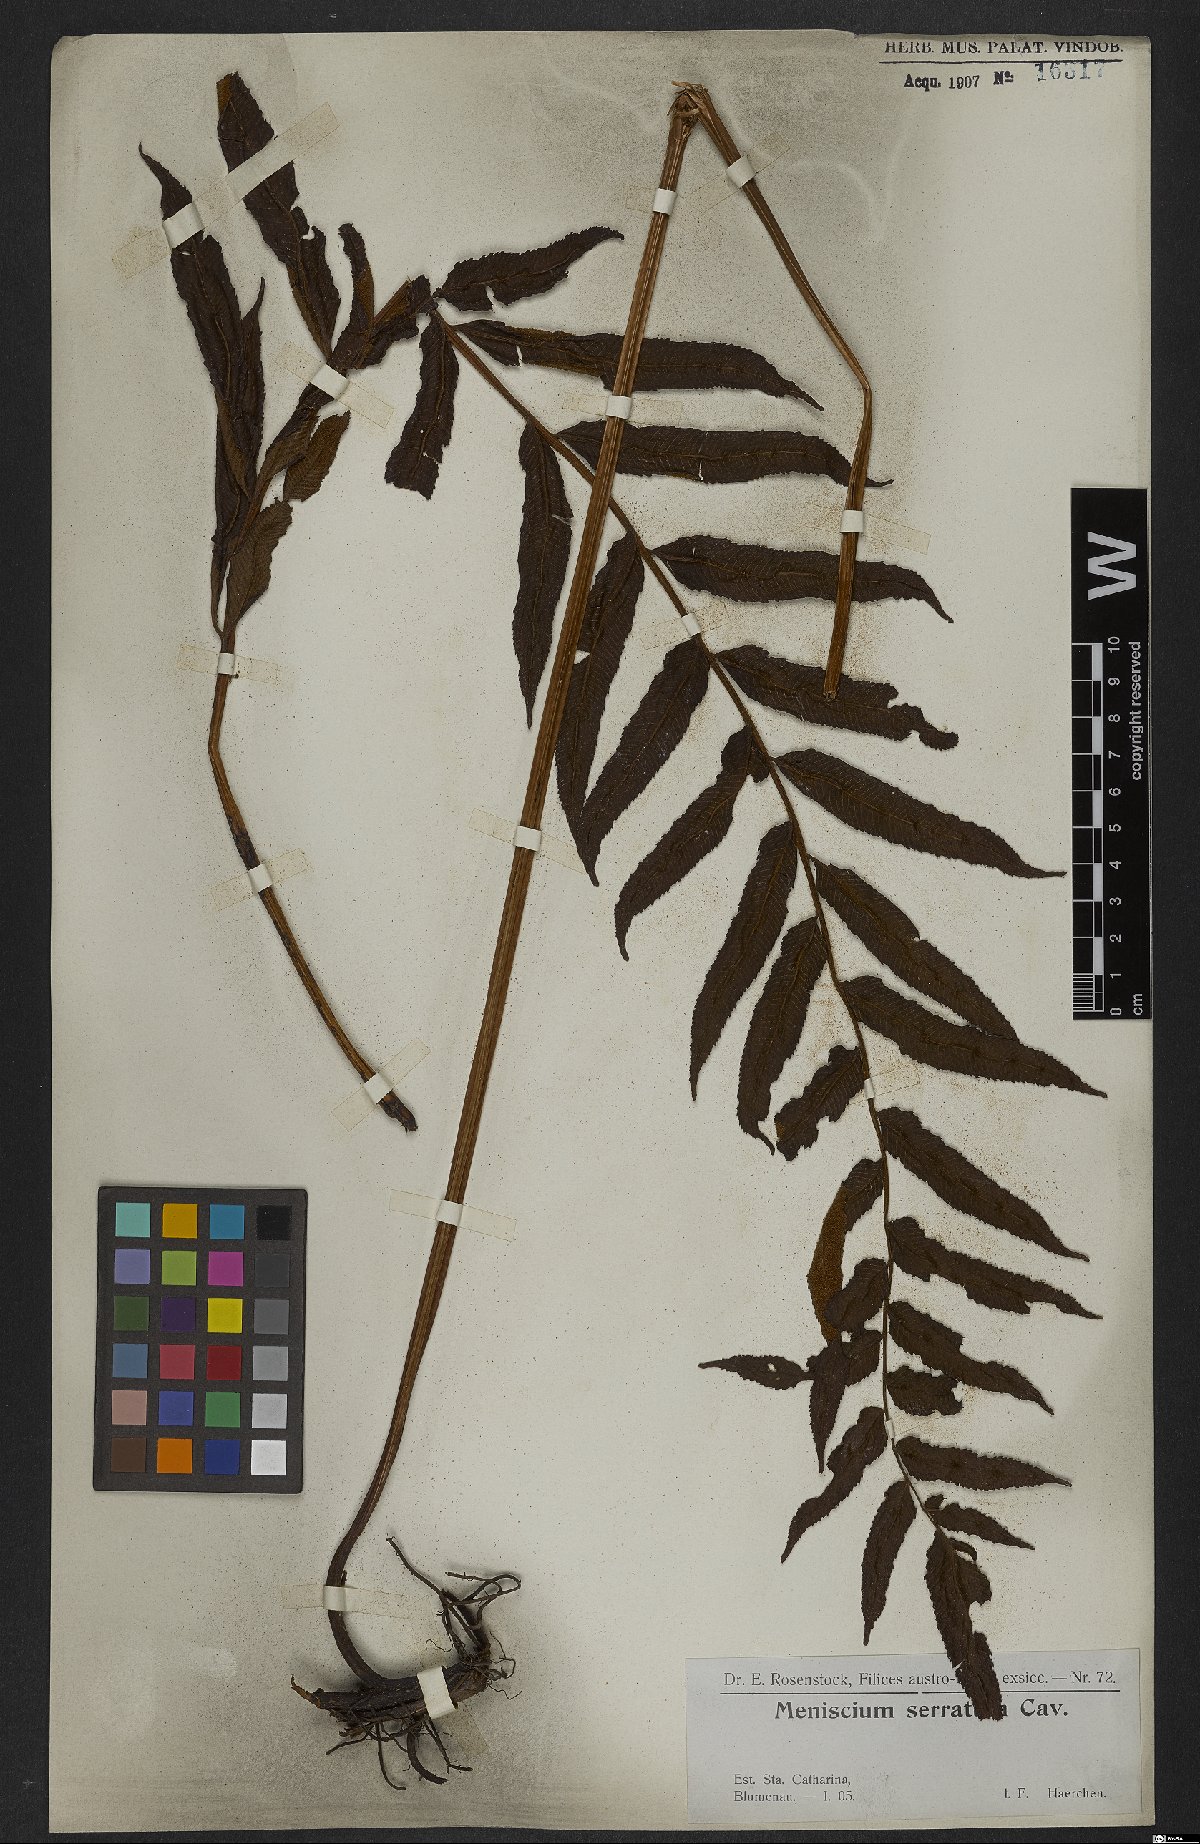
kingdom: Plantae
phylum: Tracheophyta
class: Polypodiopsida
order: Polypodiales
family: Thelypteridaceae
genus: Meniscium
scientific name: Meniscium serratum
